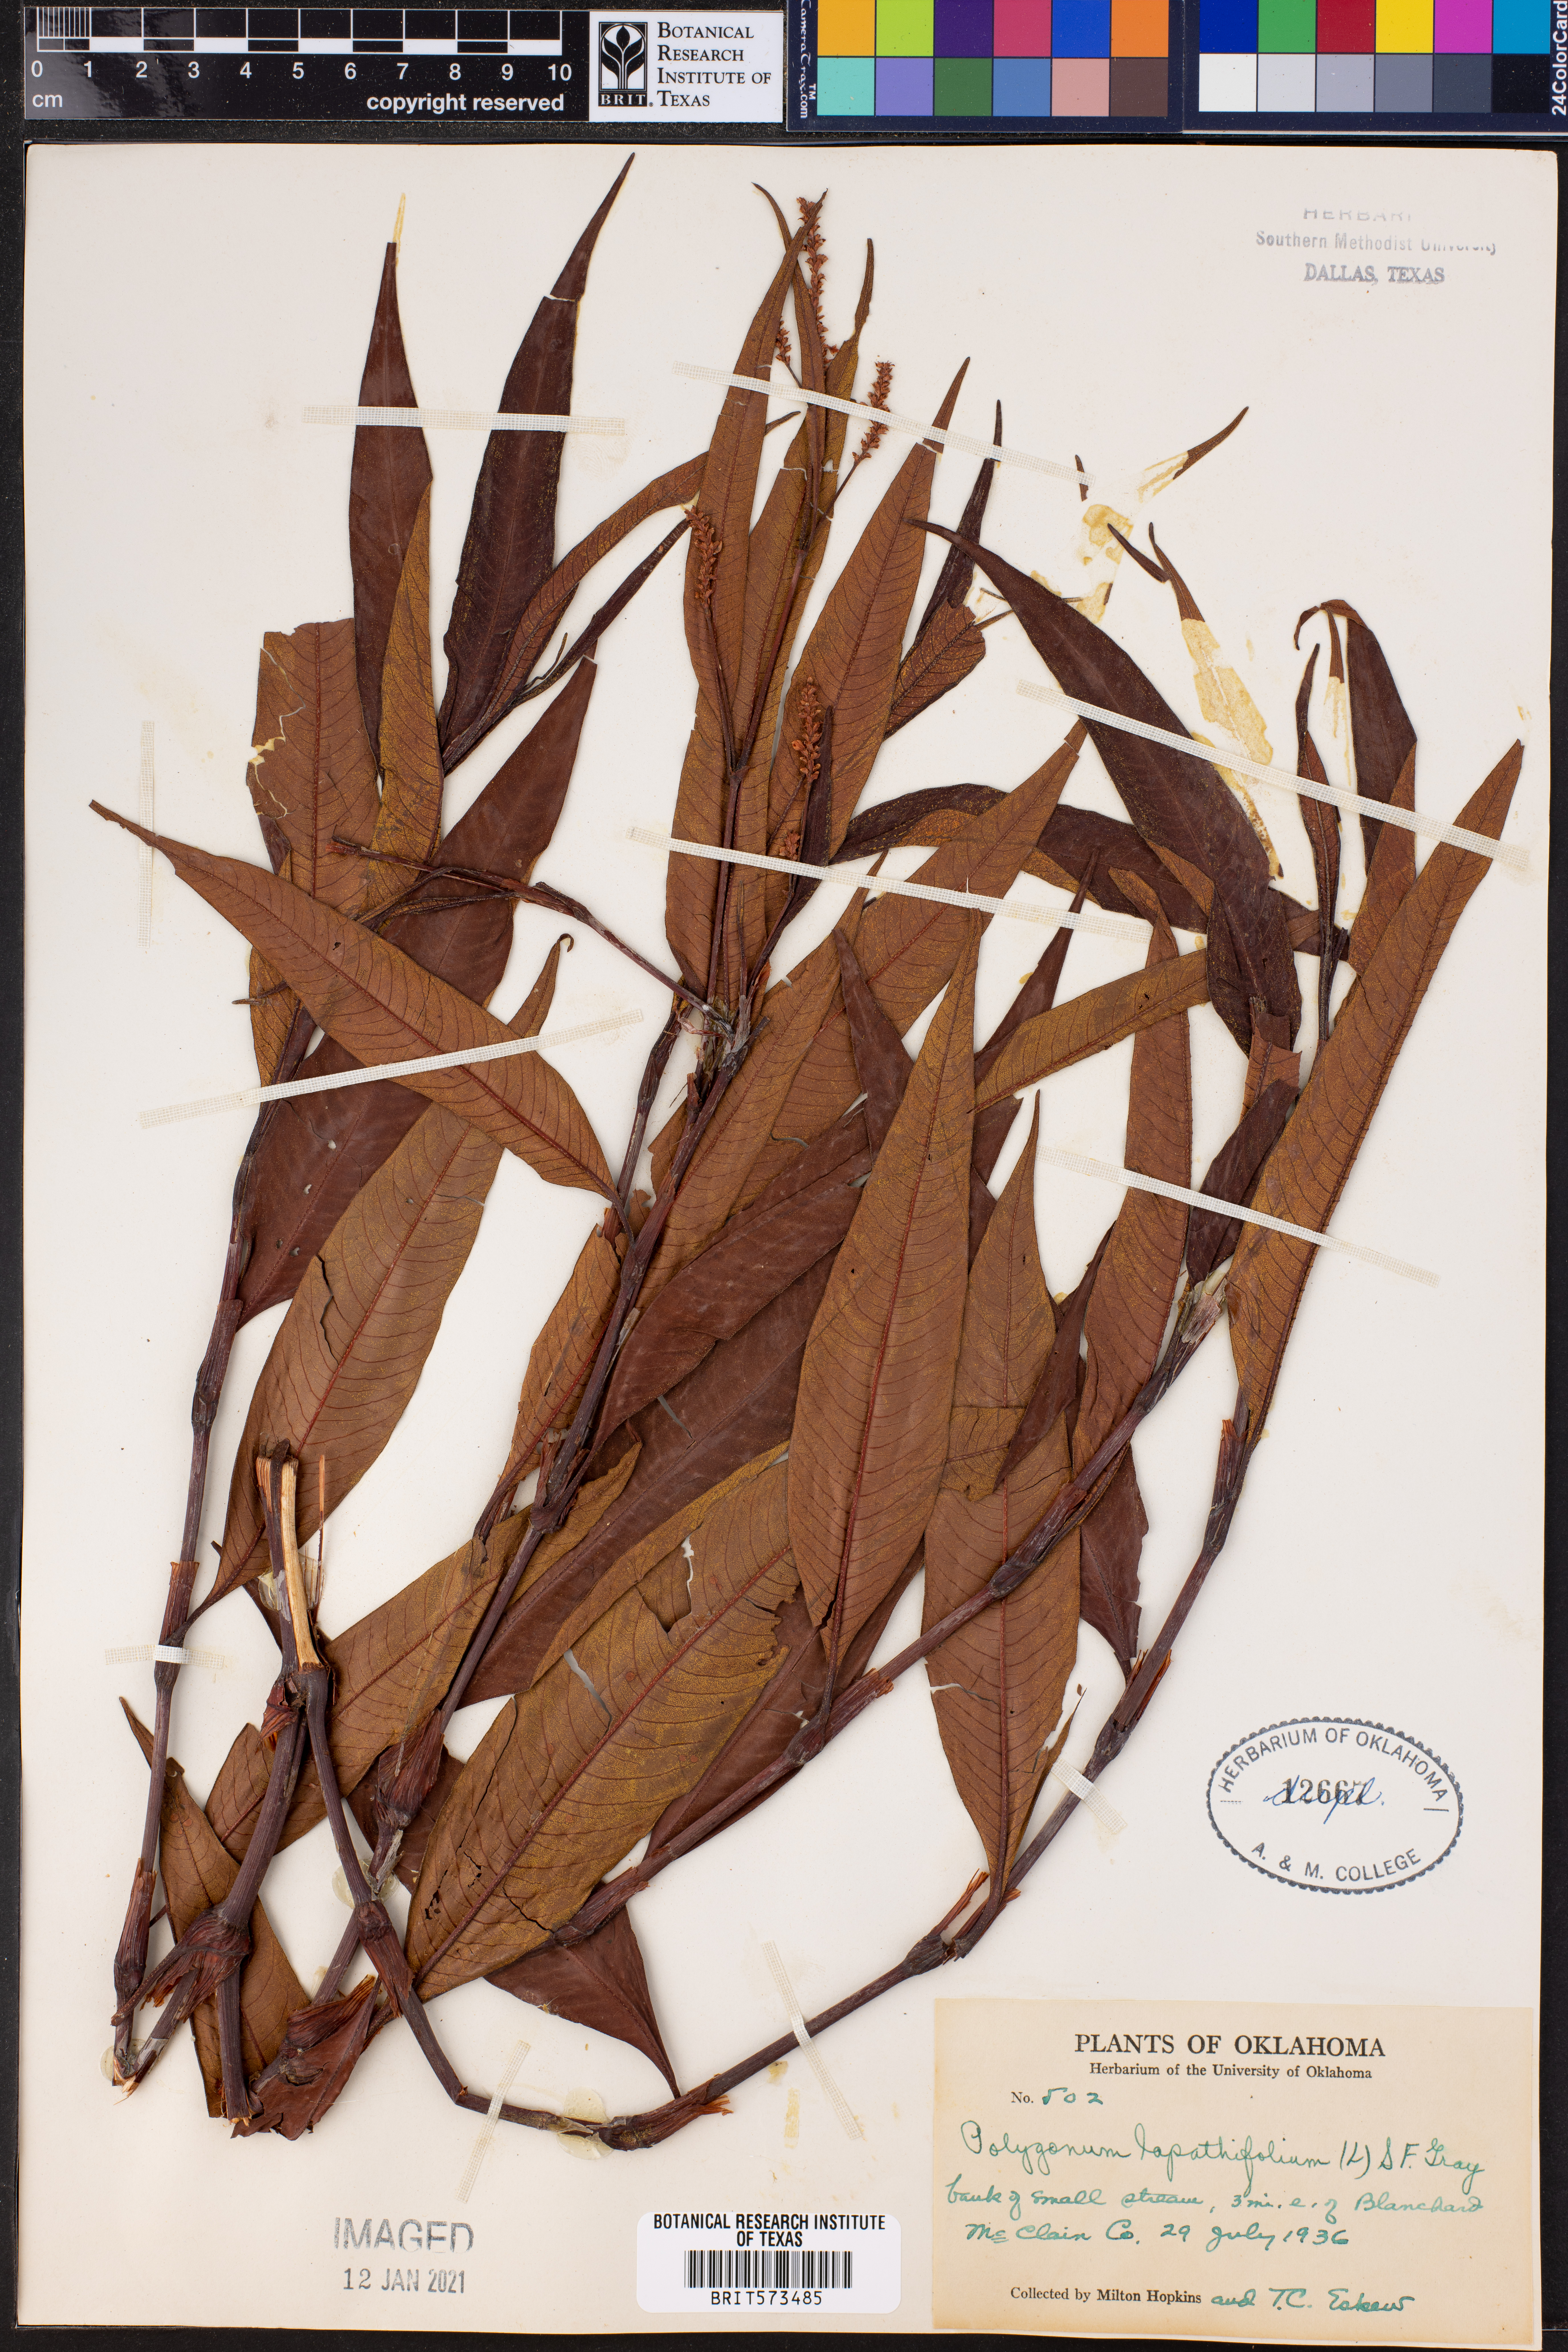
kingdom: Plantae
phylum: Tracheophyta
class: Magnoliopsida
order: Caryophyllales
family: Polygonaceae
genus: Persicaria
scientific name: Persicaria lapathifolia
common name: Curlytop knotweed
